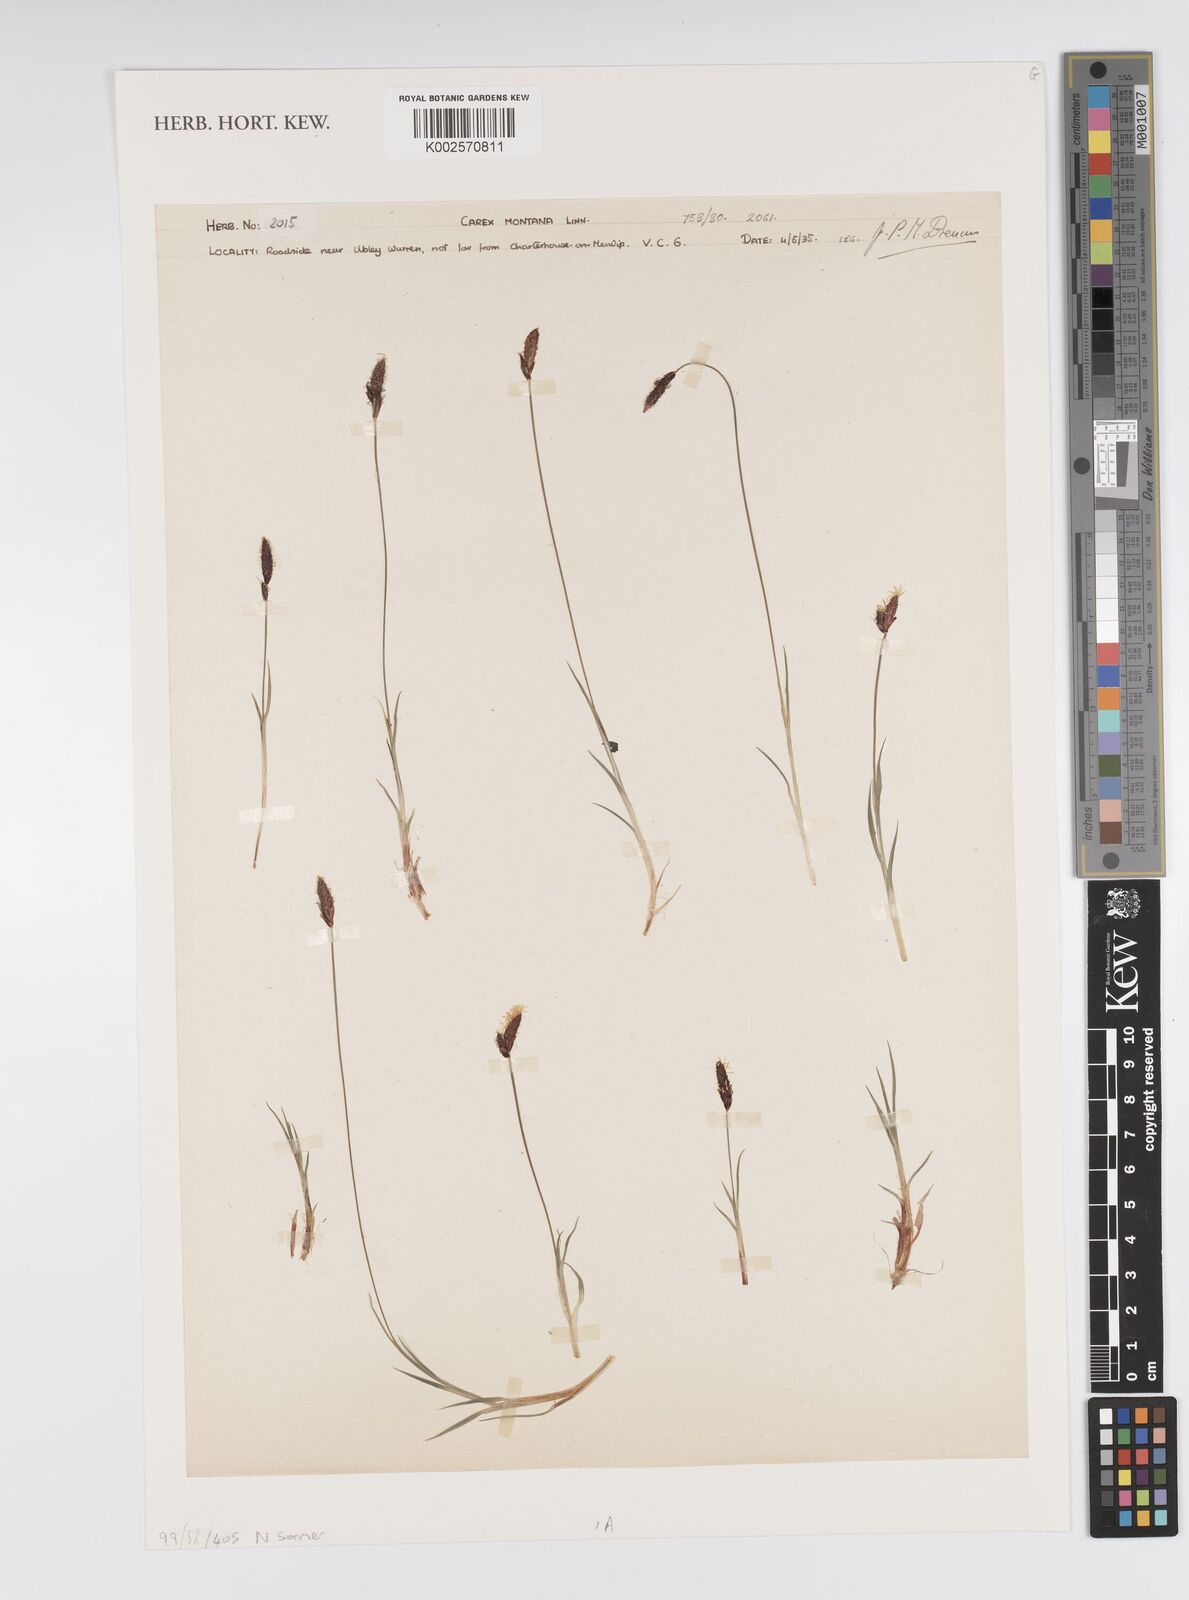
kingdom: Plantae
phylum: Tracheophyta
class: Liliopsida
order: Poales
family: Cyperaceae
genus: Carex
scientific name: Carex montana
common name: Soft-leaved sedge
